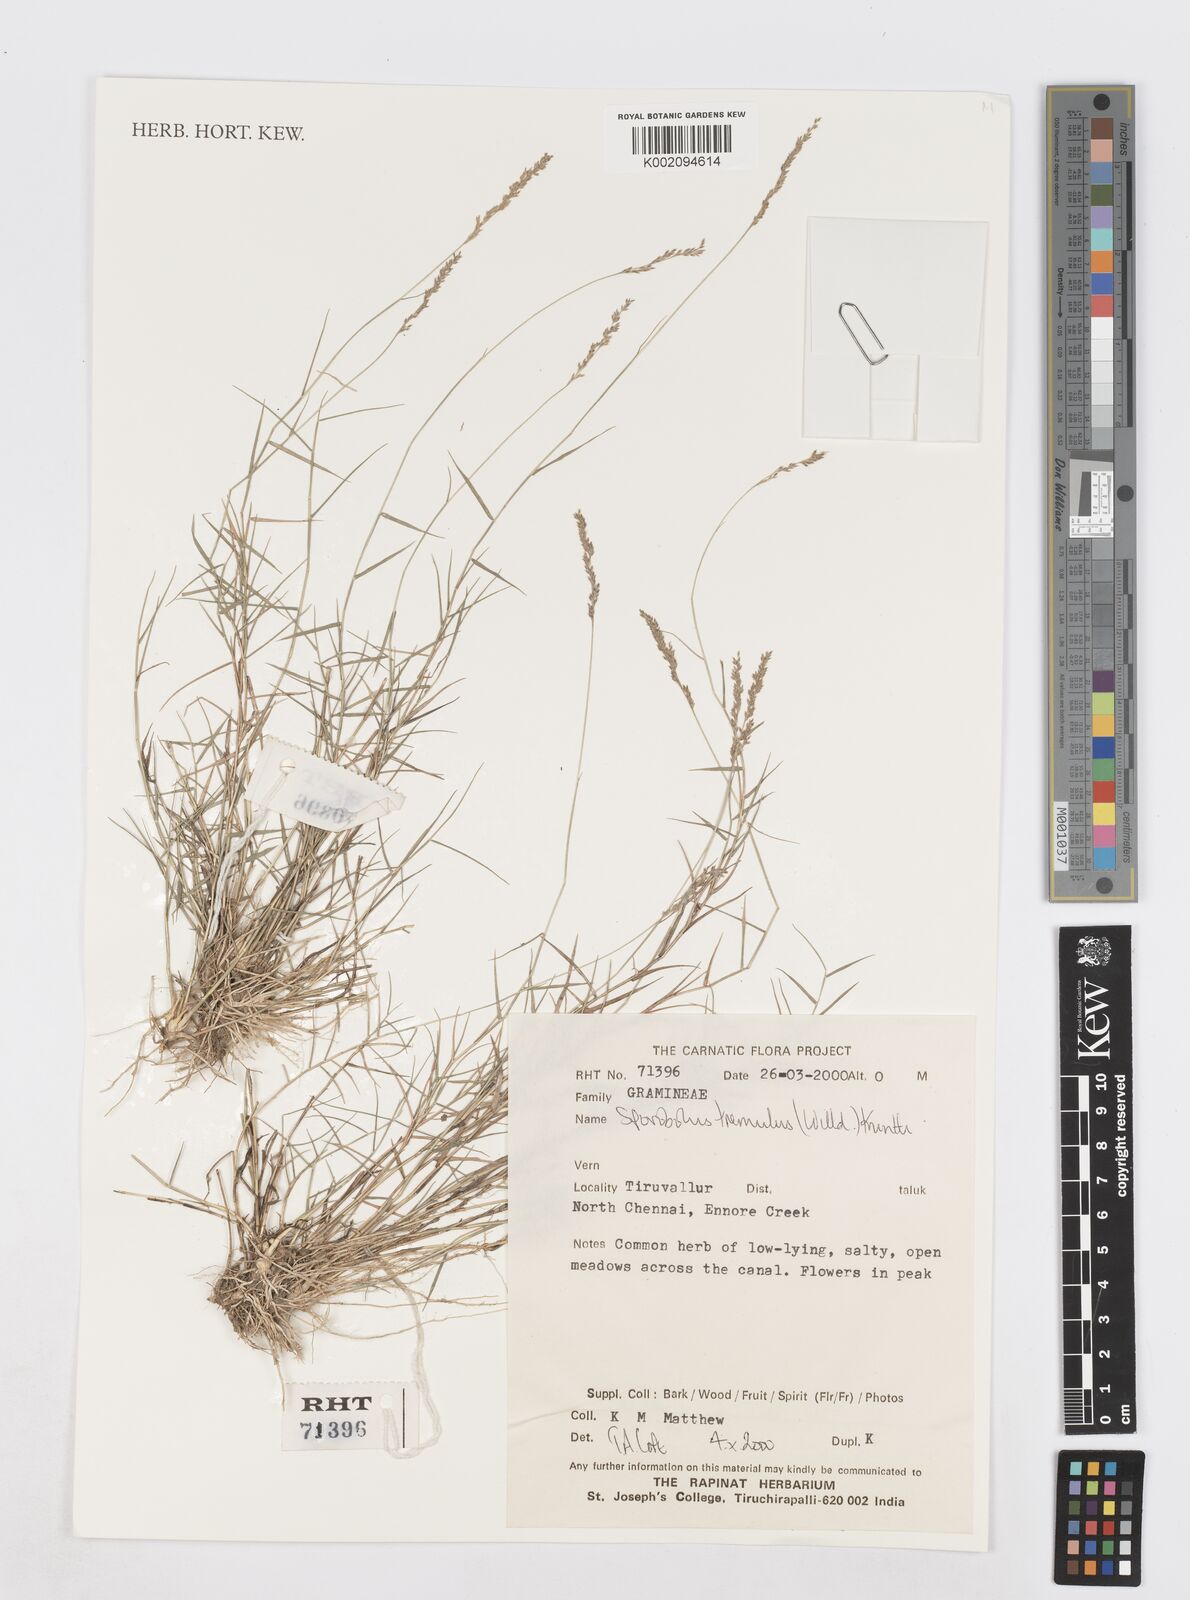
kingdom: Plantae
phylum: Tracheophyta
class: Liliopsida
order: Poales
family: Poaceae
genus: Sporobolus
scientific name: Sporobolus virginicus
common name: Beach dropseed
